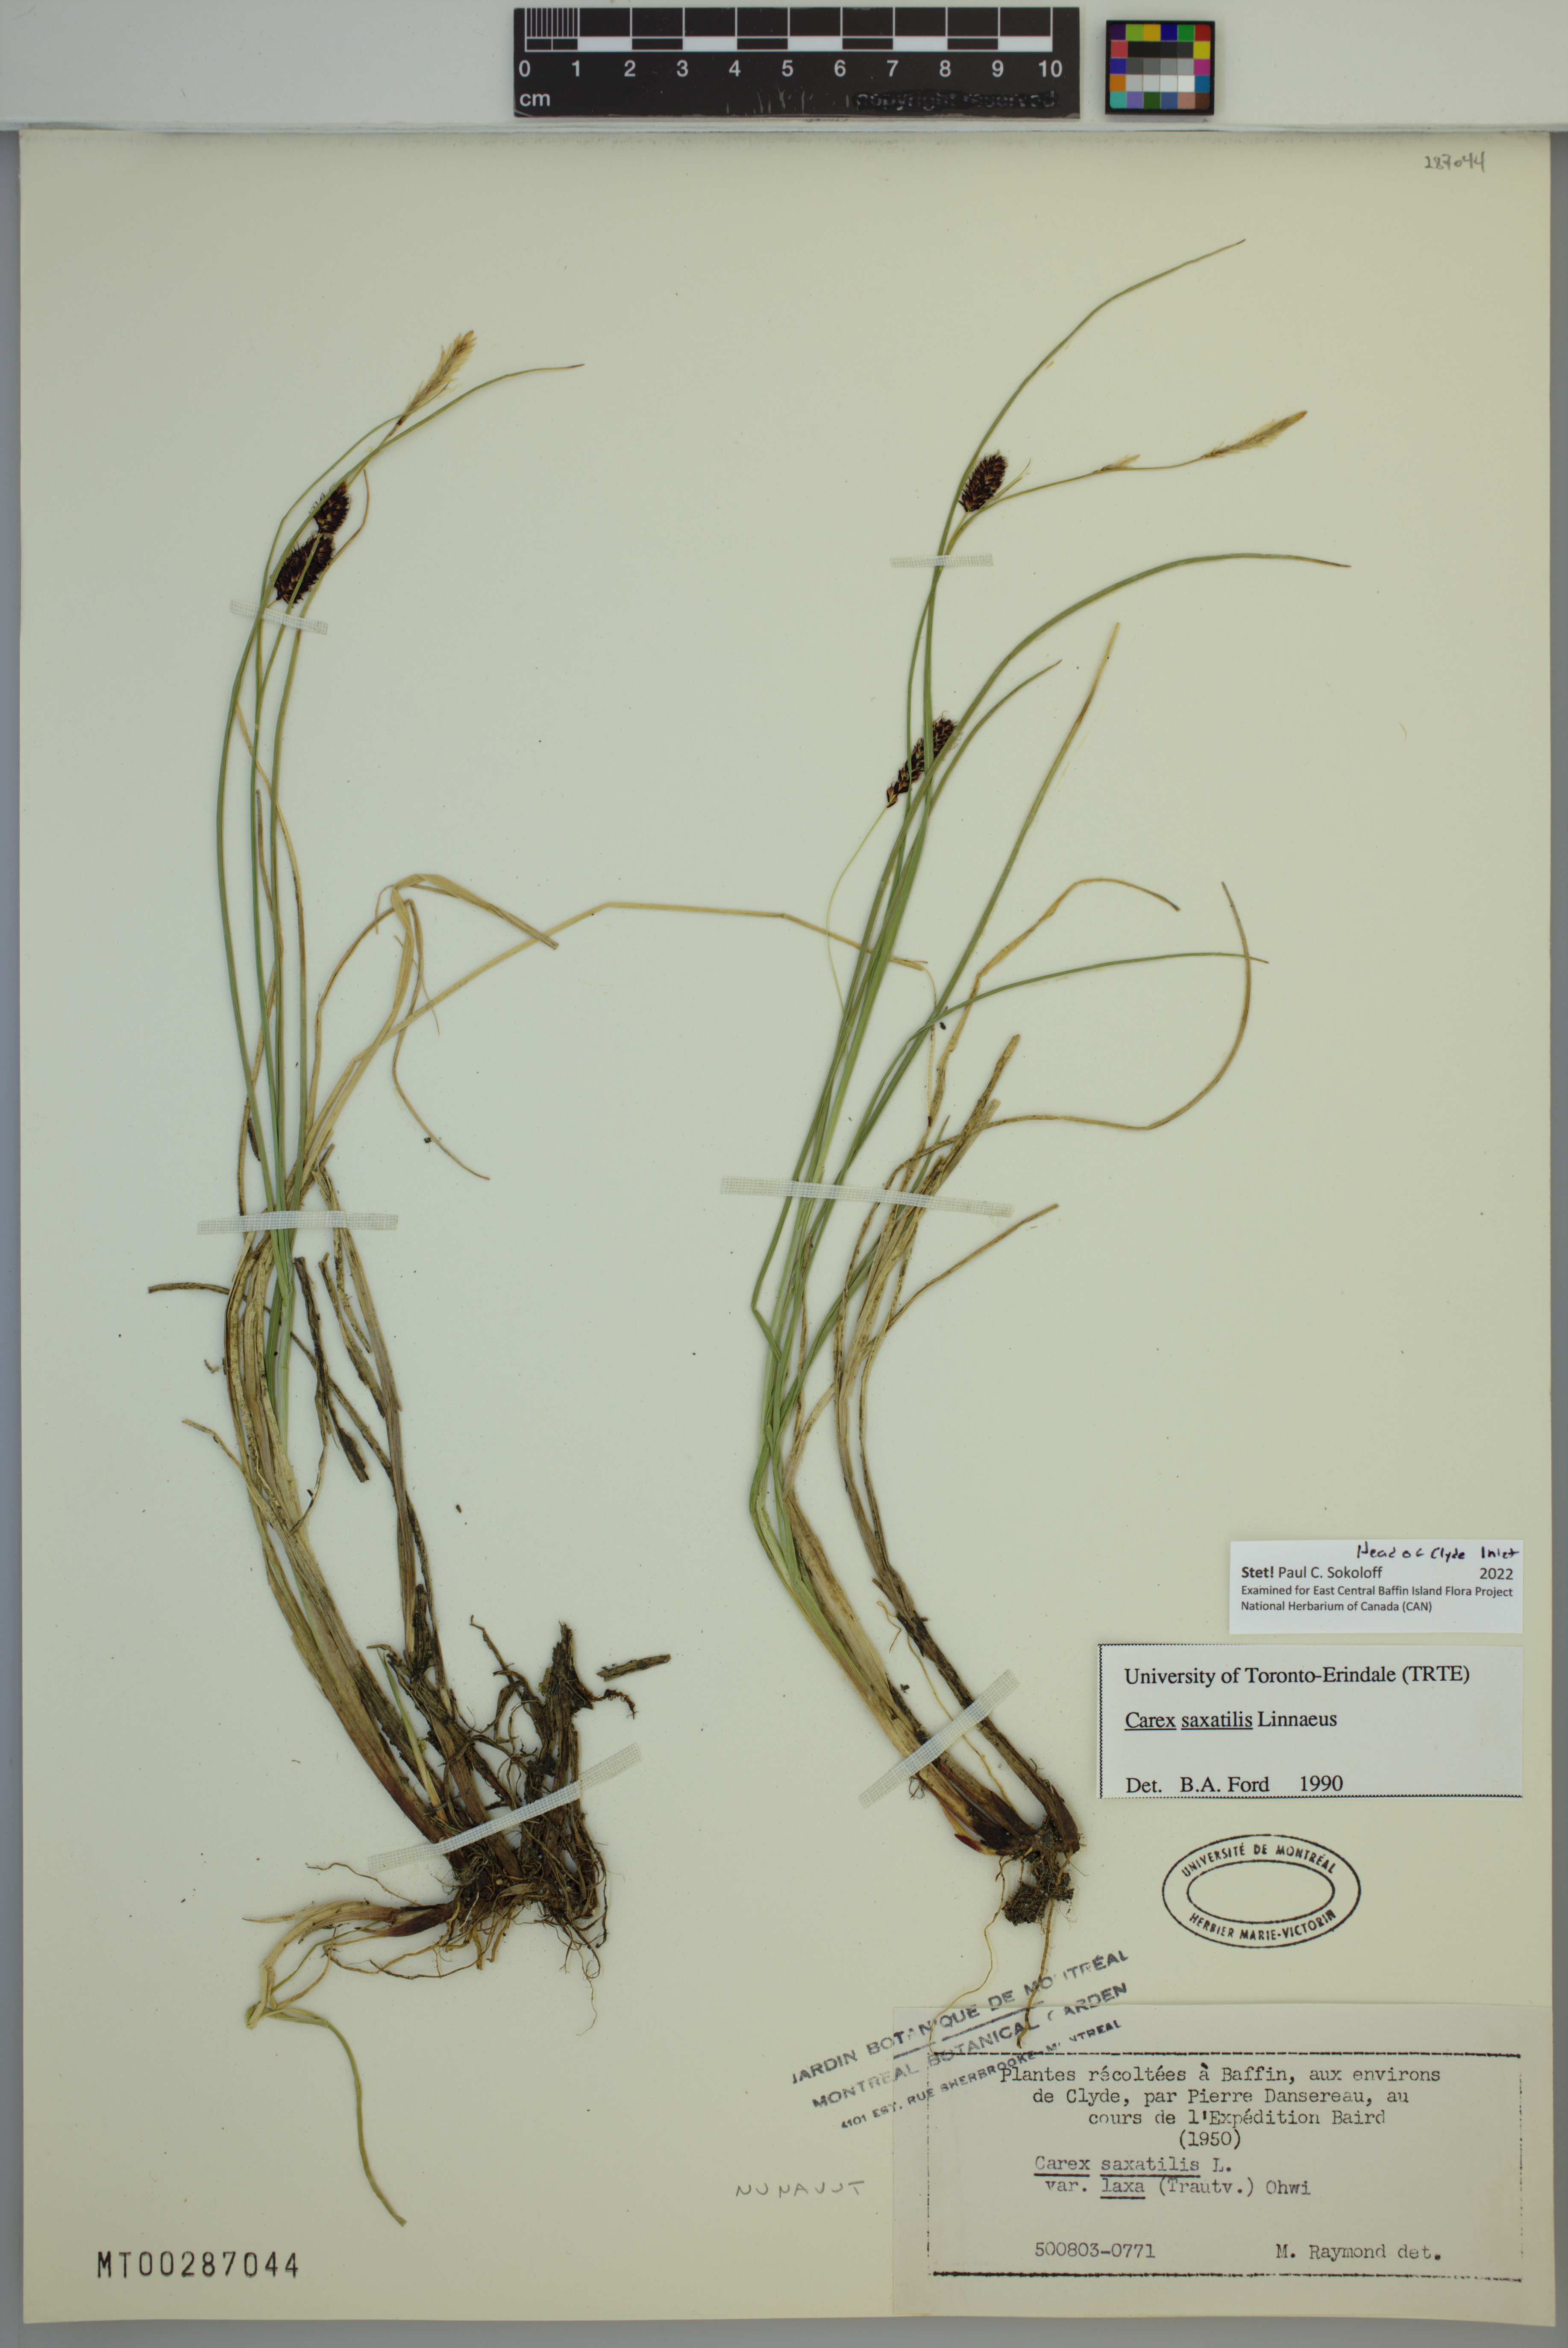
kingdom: Plantae
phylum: Tracheophyta
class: Liliopsida
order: Poales
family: Cyperaceae
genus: Carex
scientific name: Carex saxatilis
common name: Russet sedge
